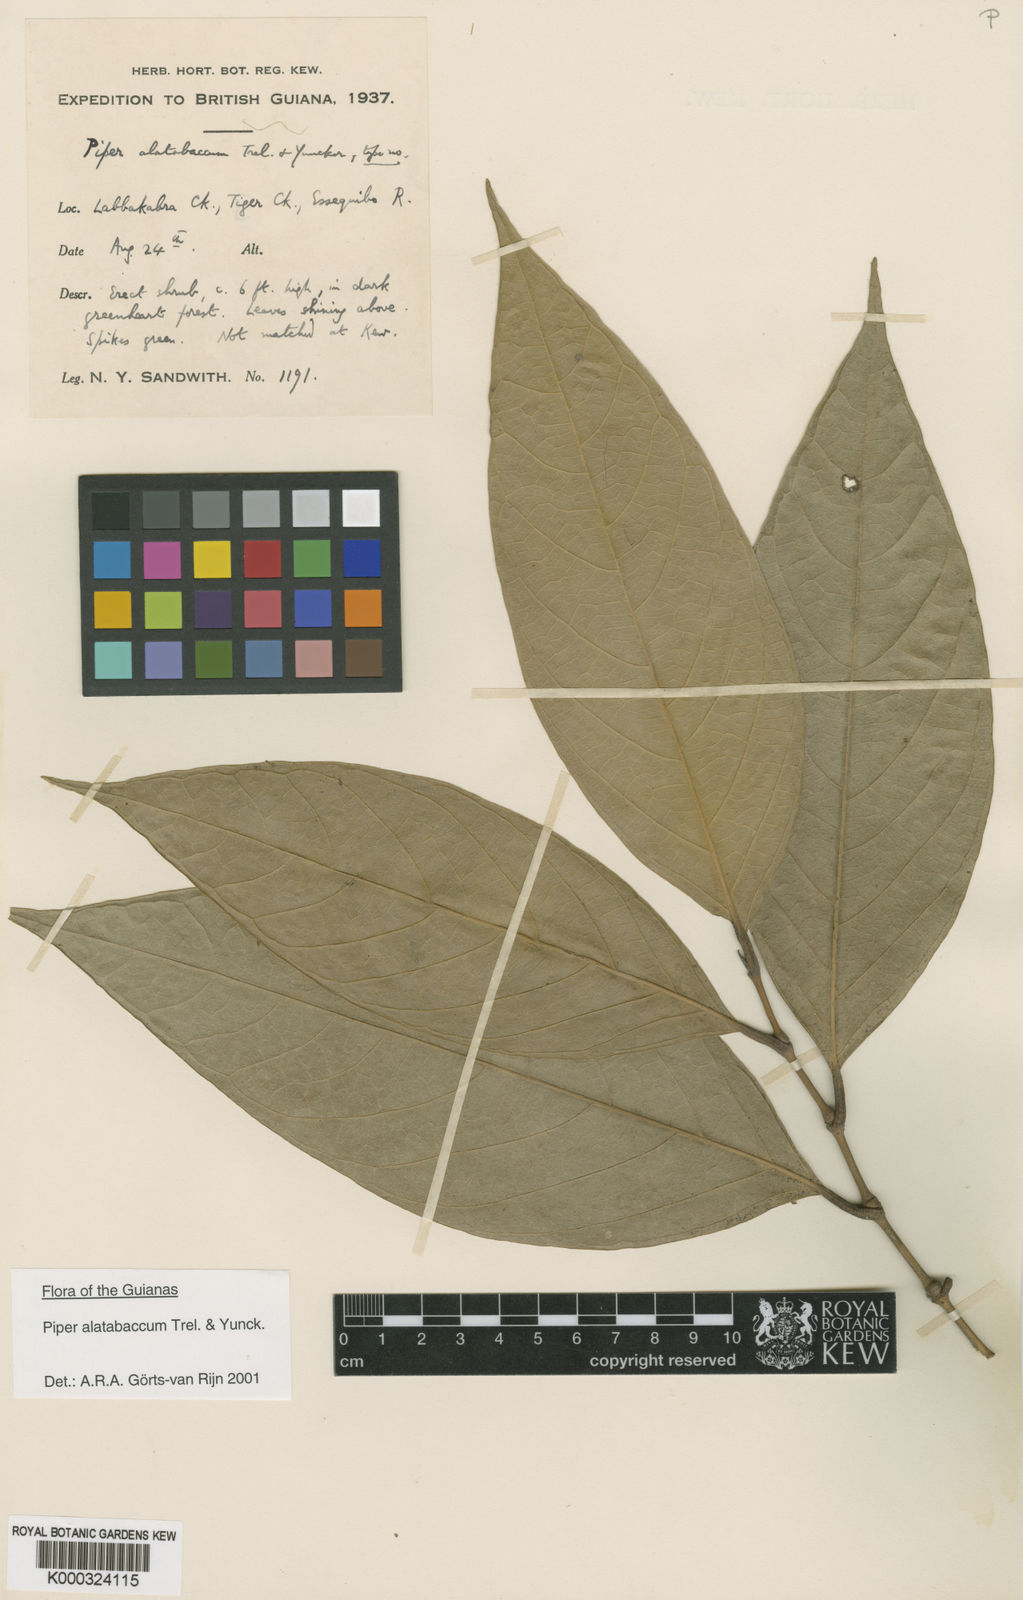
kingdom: Plantae
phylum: Tracheophyta
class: Magnoliopsida
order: Piperales
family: Piperaceae
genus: Piper
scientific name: Piper alatabaccum
